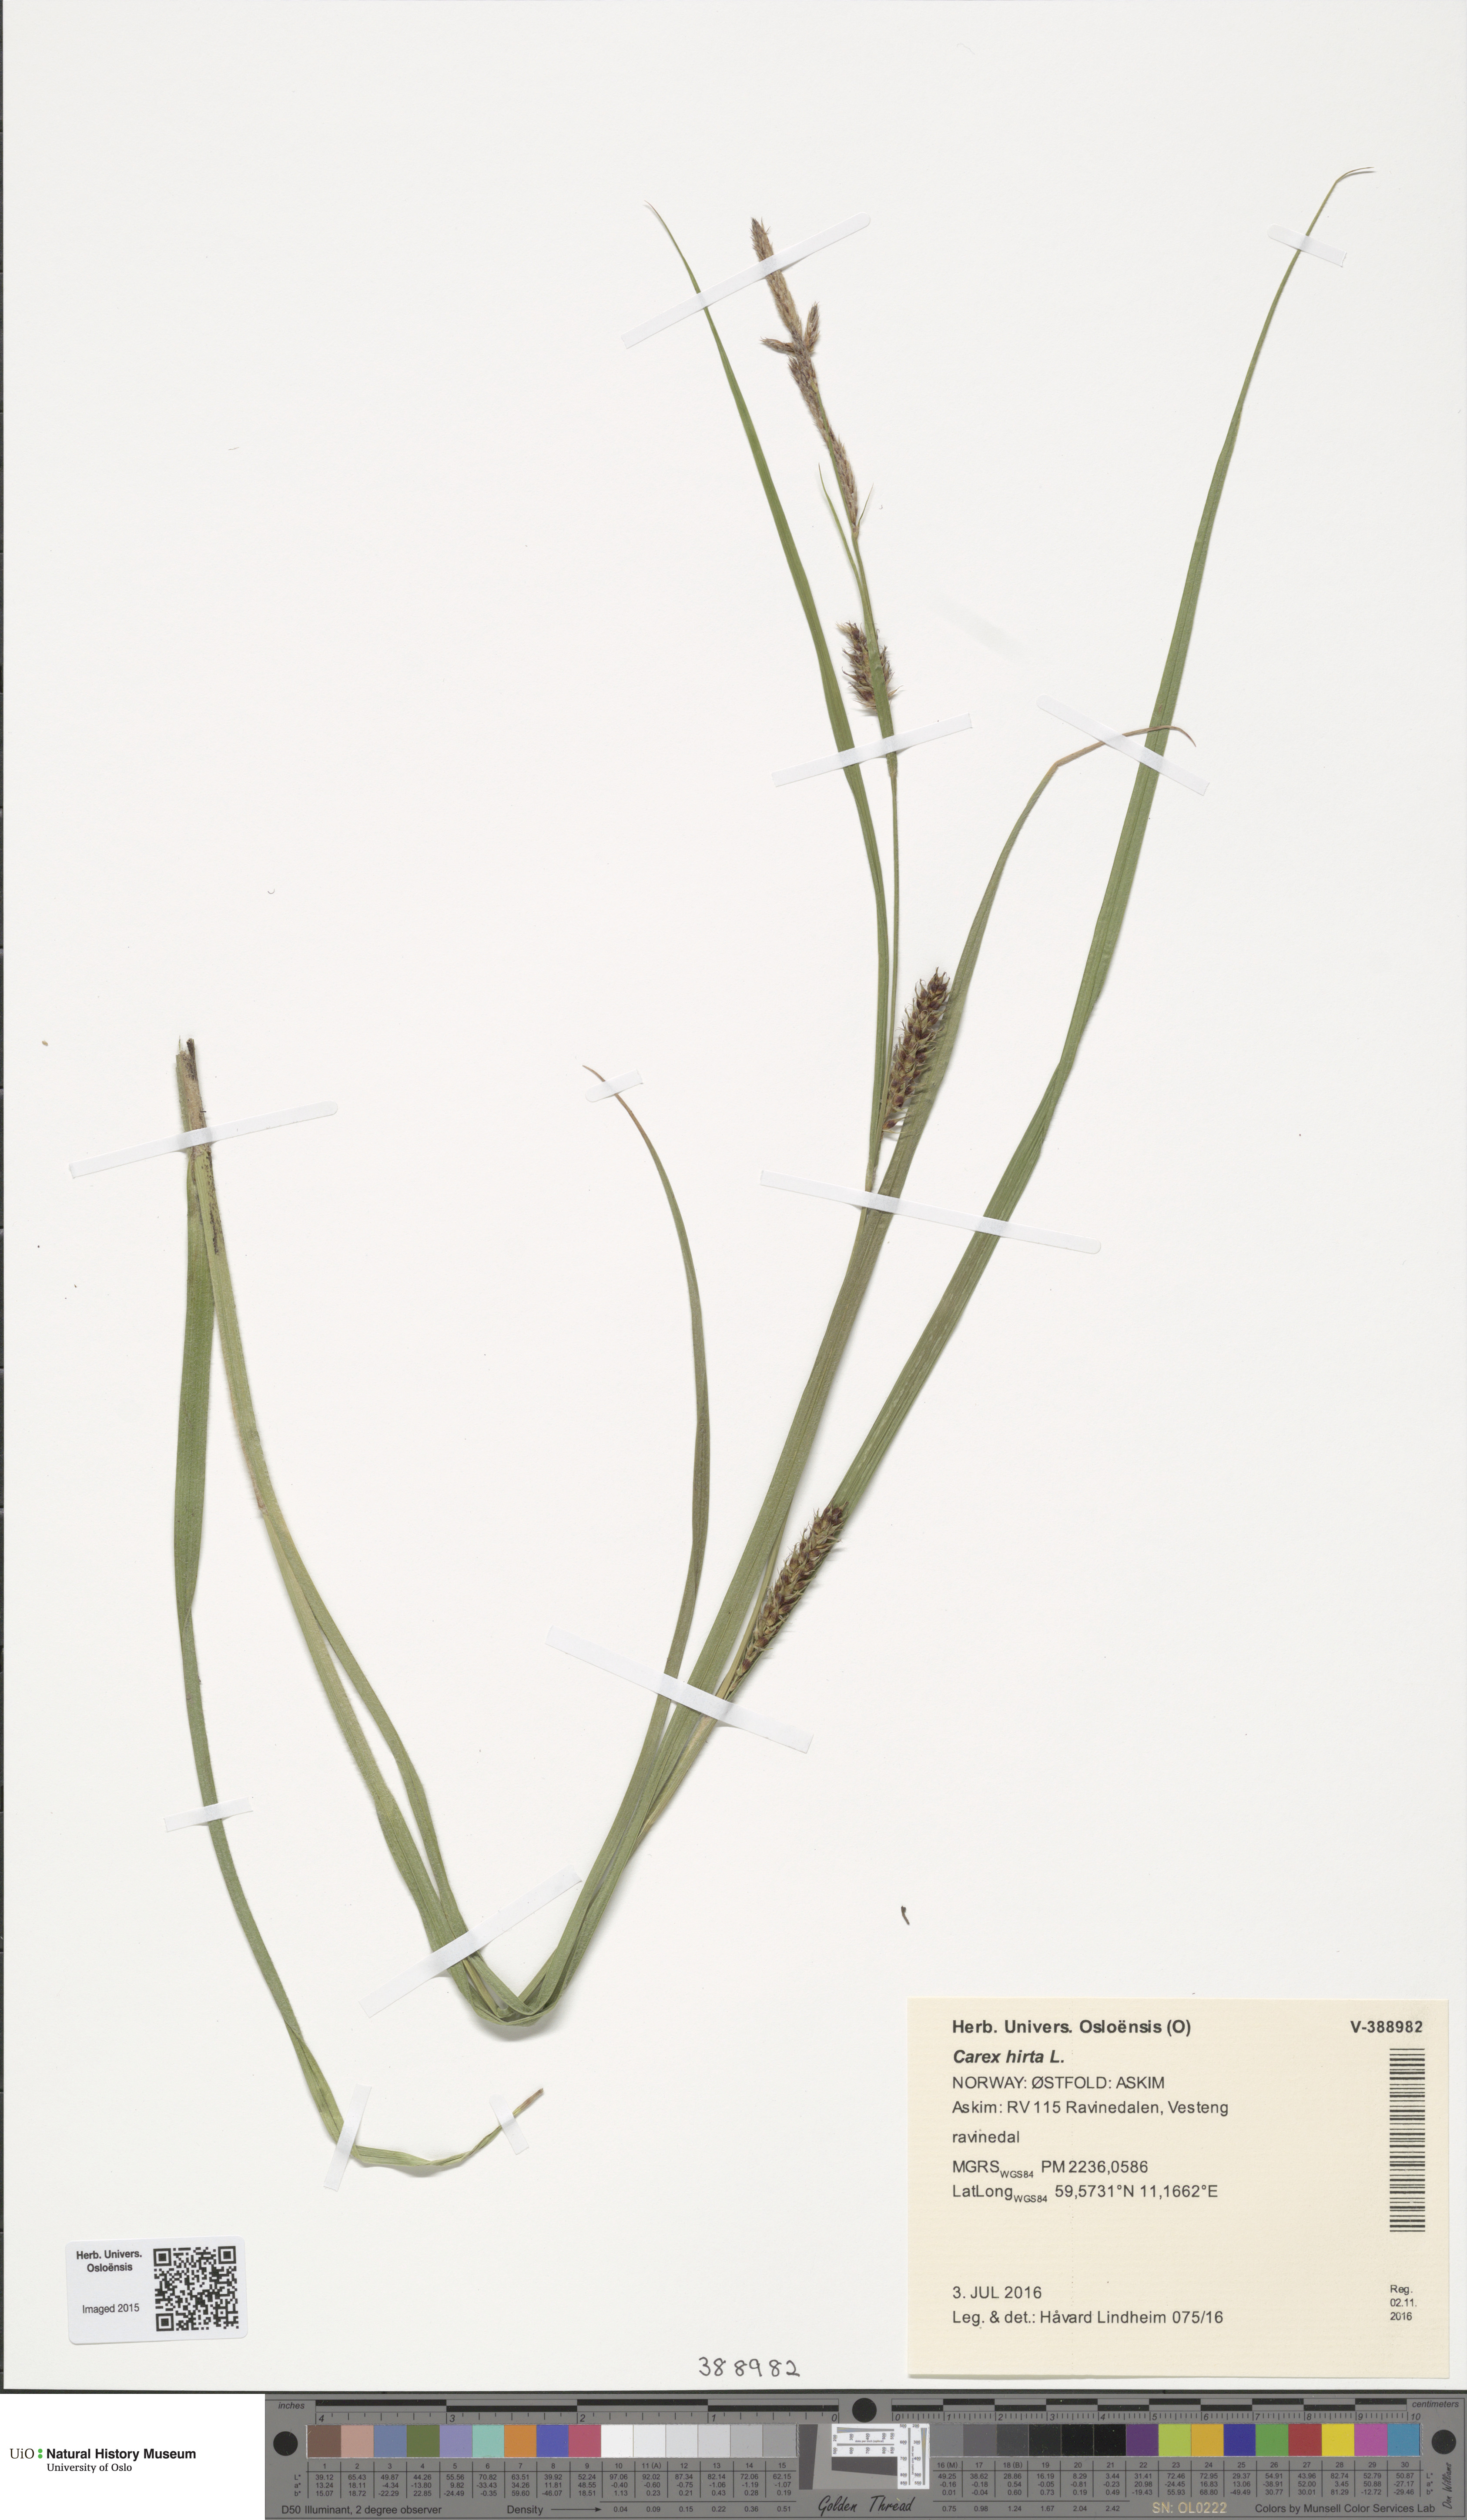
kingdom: Plantae
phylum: Tracheophyta
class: Liliopsida
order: Poales
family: Cyperaceae
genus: Carex
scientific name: Carex hirta
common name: Hairy sedge
